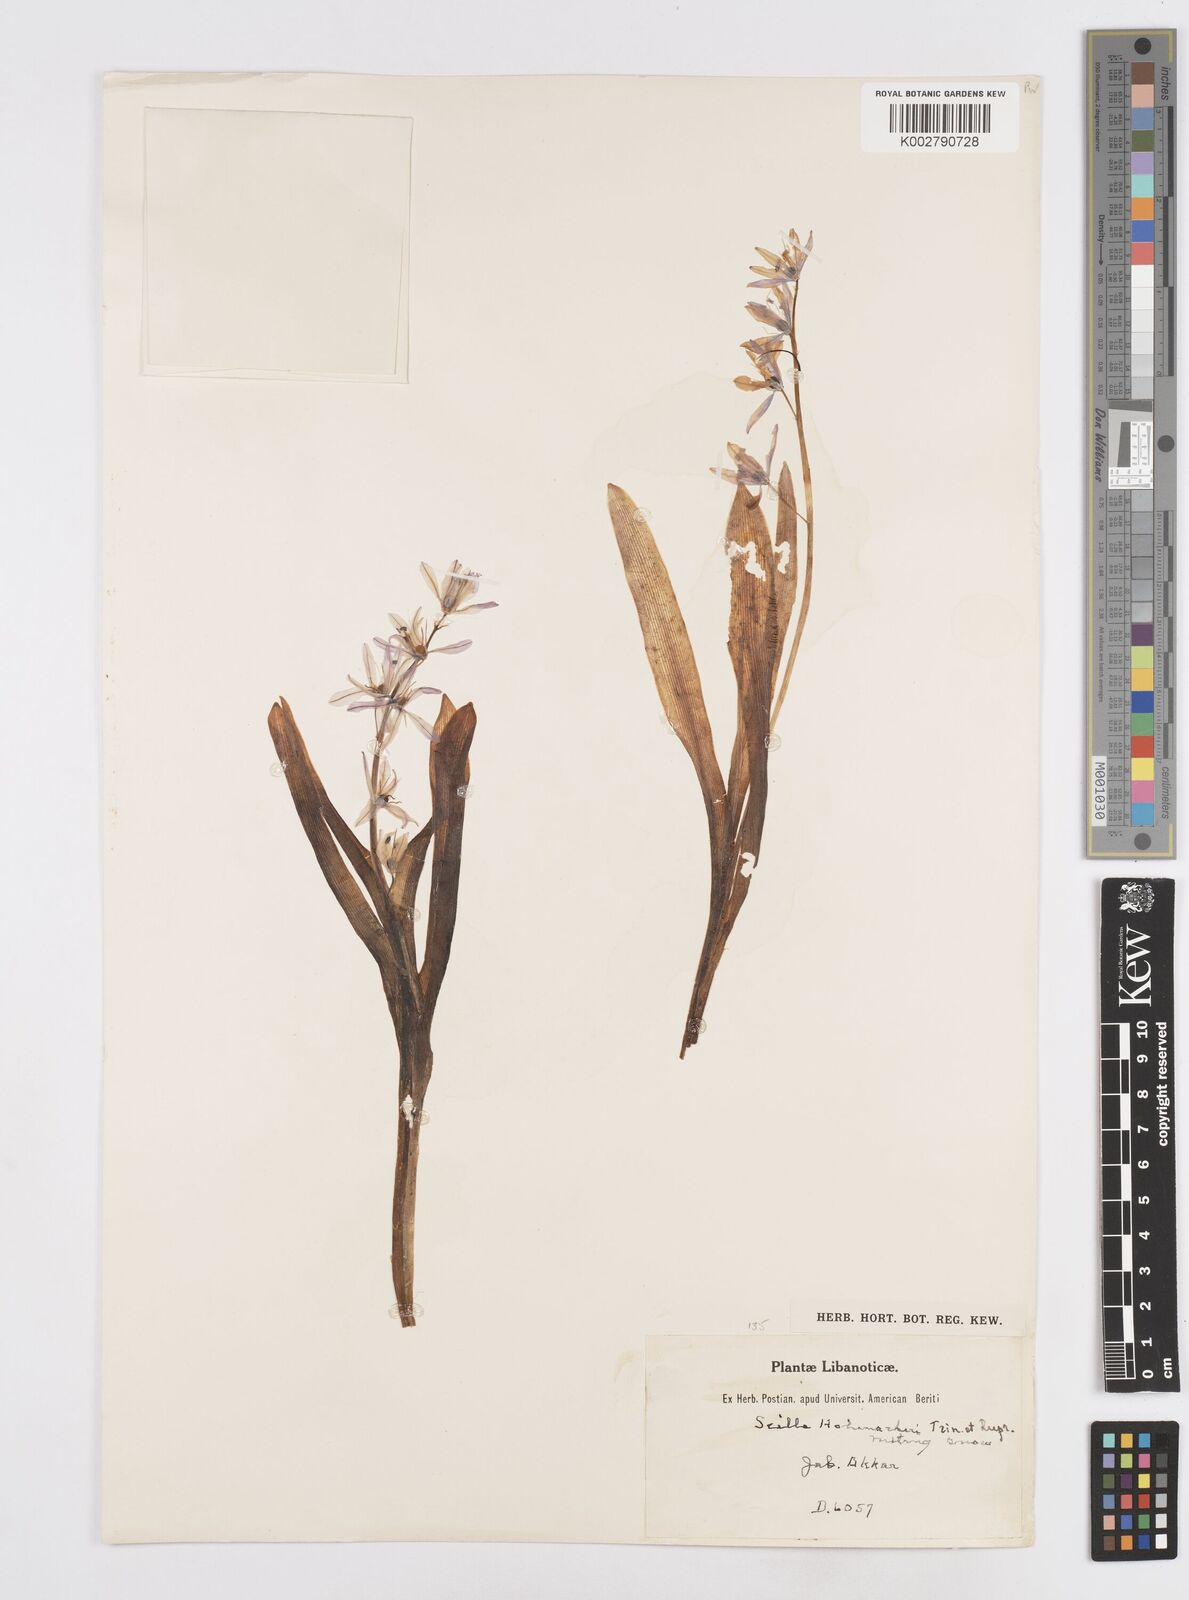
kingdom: Plantae
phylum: Tracheophyta
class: Liliopsida
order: Asparagales
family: Asparagaceae
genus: Scilla
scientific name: Scilla siberica
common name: Siberian squill
